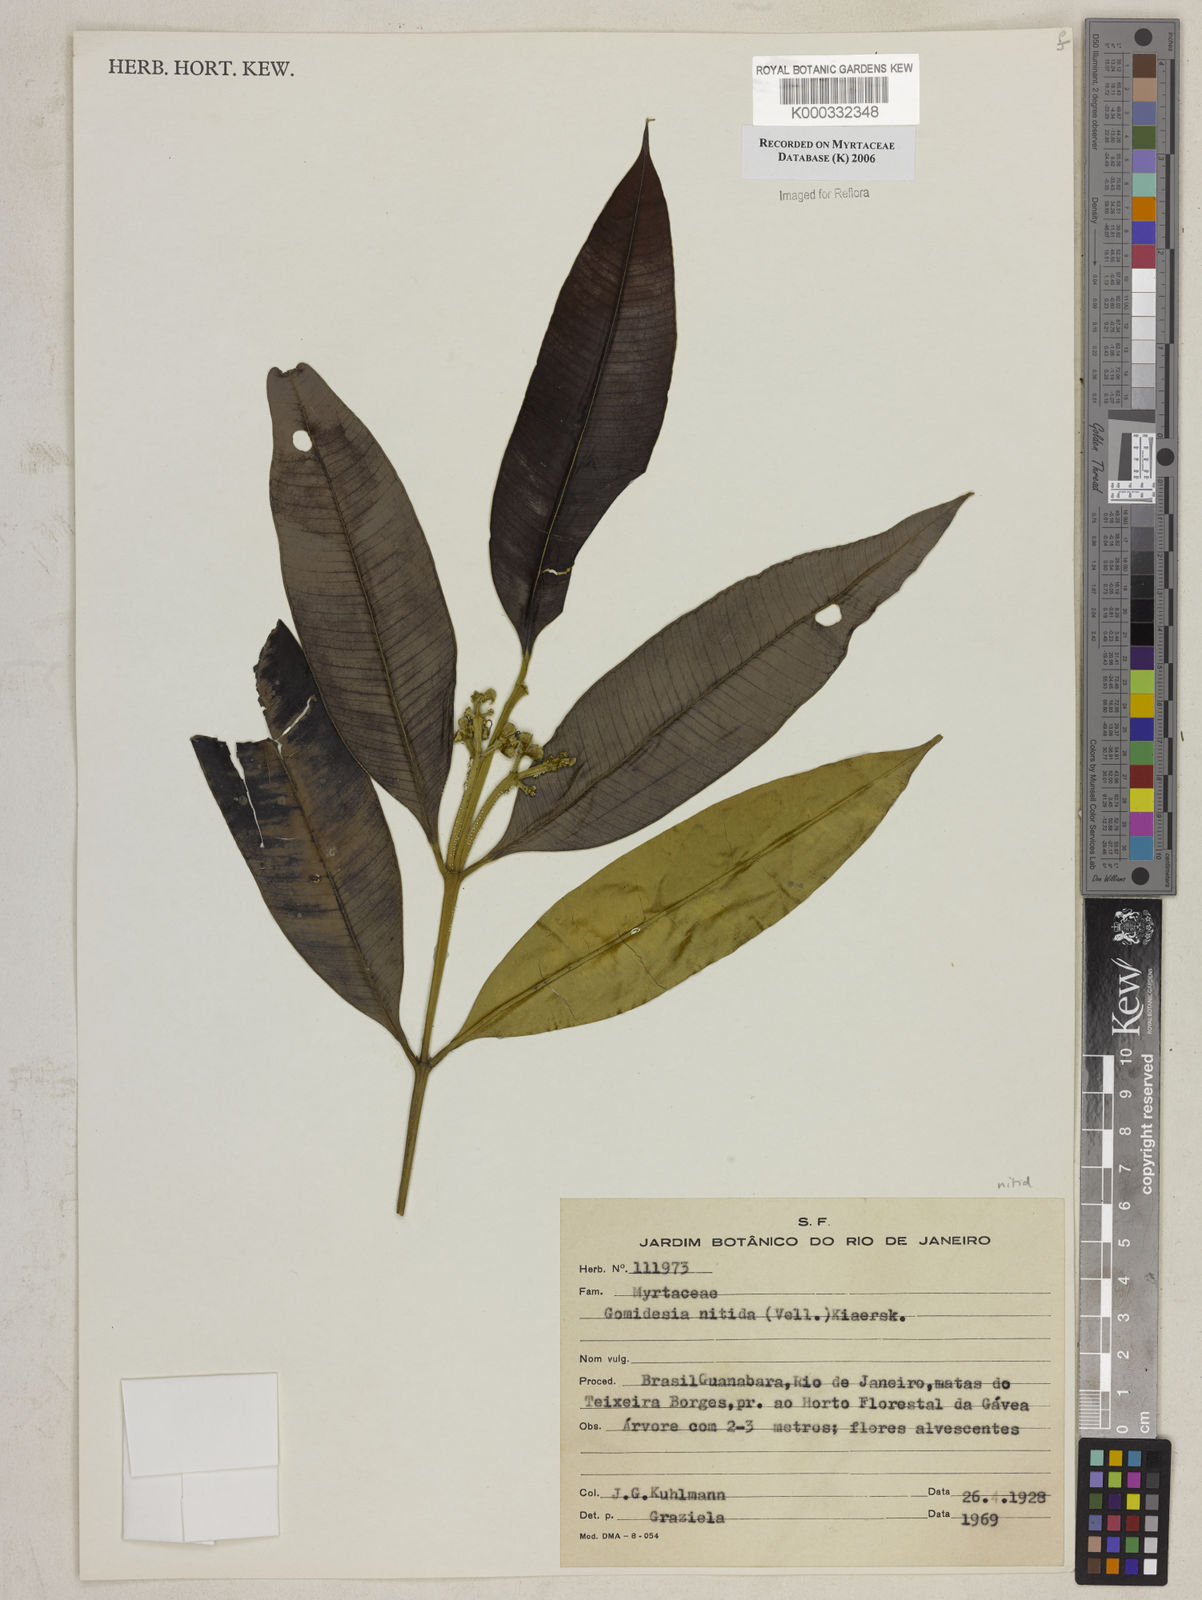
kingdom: Plantae
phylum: Tracheophyta
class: Magnoliopsida
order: Myrtales
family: Myrtaceae
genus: Myrcia
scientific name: Myrcia subsericea
